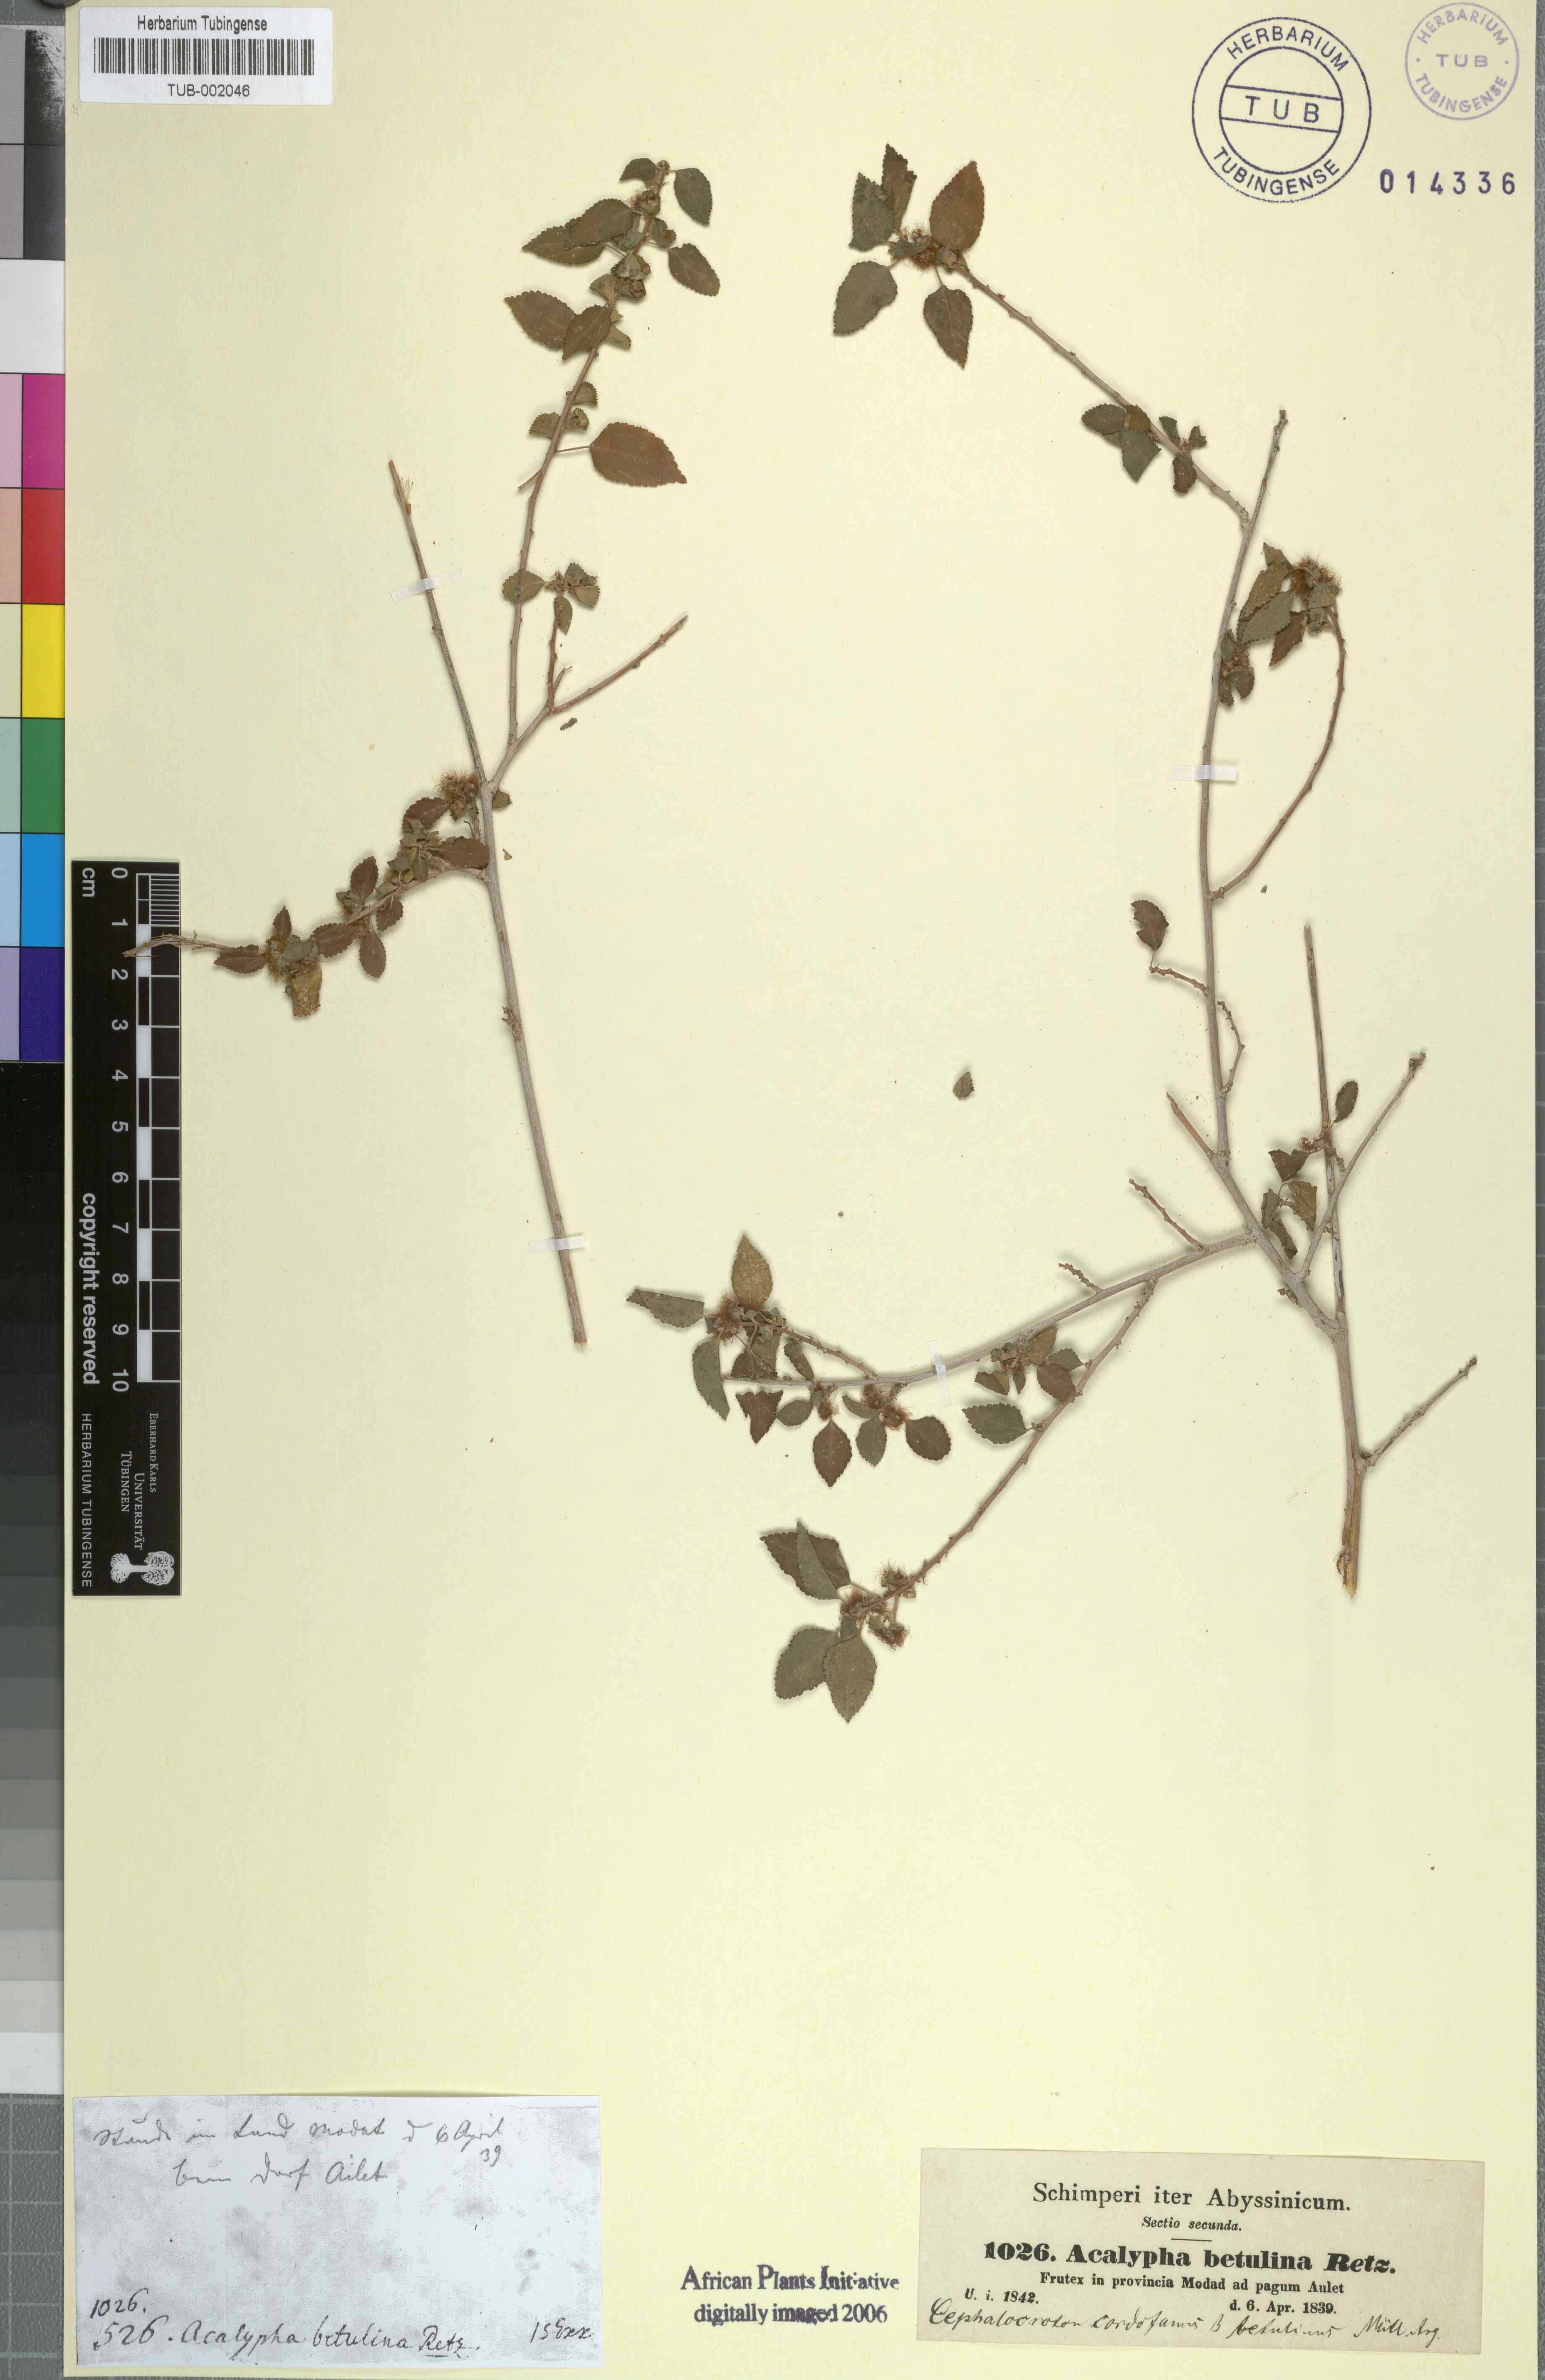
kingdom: Plantae
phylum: Tracheophyta
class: Magnoliopsida
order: Malpighiales
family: Euphorbiaceae
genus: Acalypha
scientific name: Acalypha fruticosa
